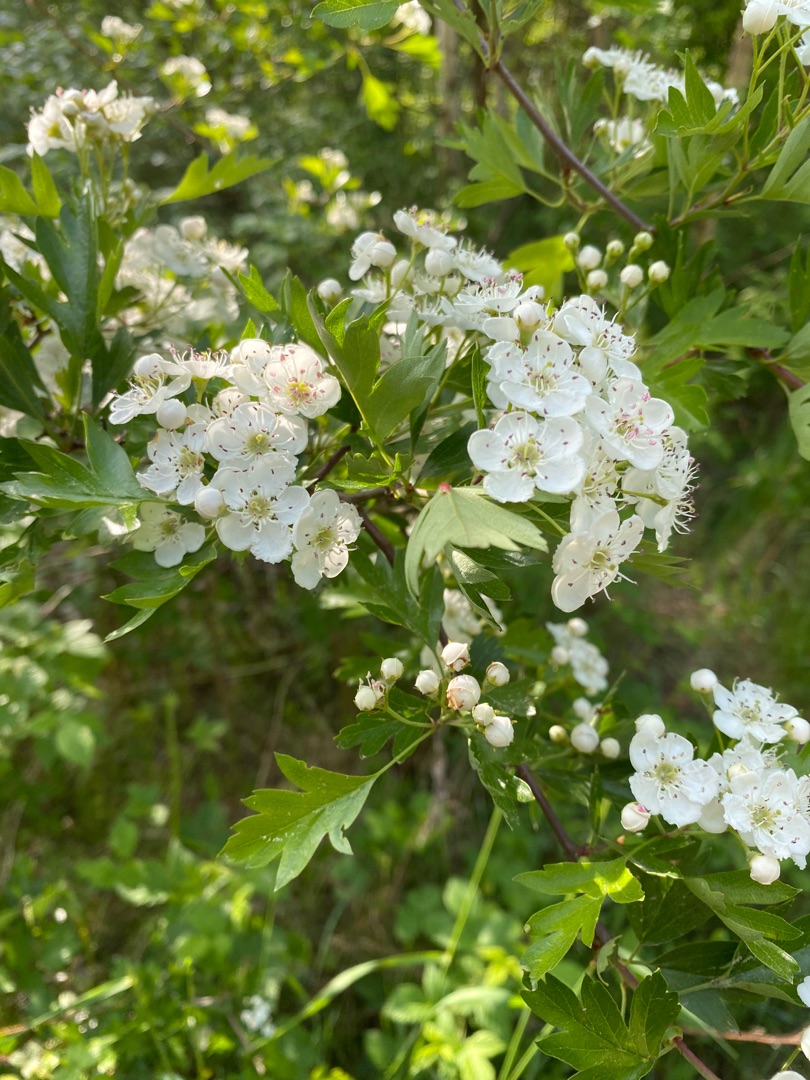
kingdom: Plantae
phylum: Tracheophyta
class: Magnoliopsida
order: Rosales
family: Rosaceae
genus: Crataegus
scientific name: Crataegus monogyna
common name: Engriflet hvidtjørn
